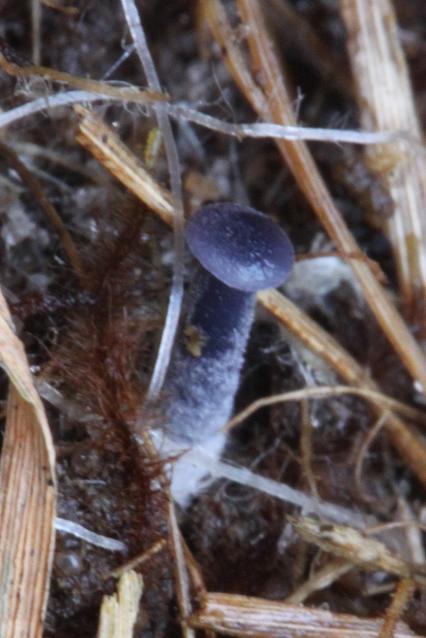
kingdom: Fungi
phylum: Basidiomycota
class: Agaricomycetes
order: Agaricales
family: Entolomataceae
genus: Entoloma
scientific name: Entoloma
